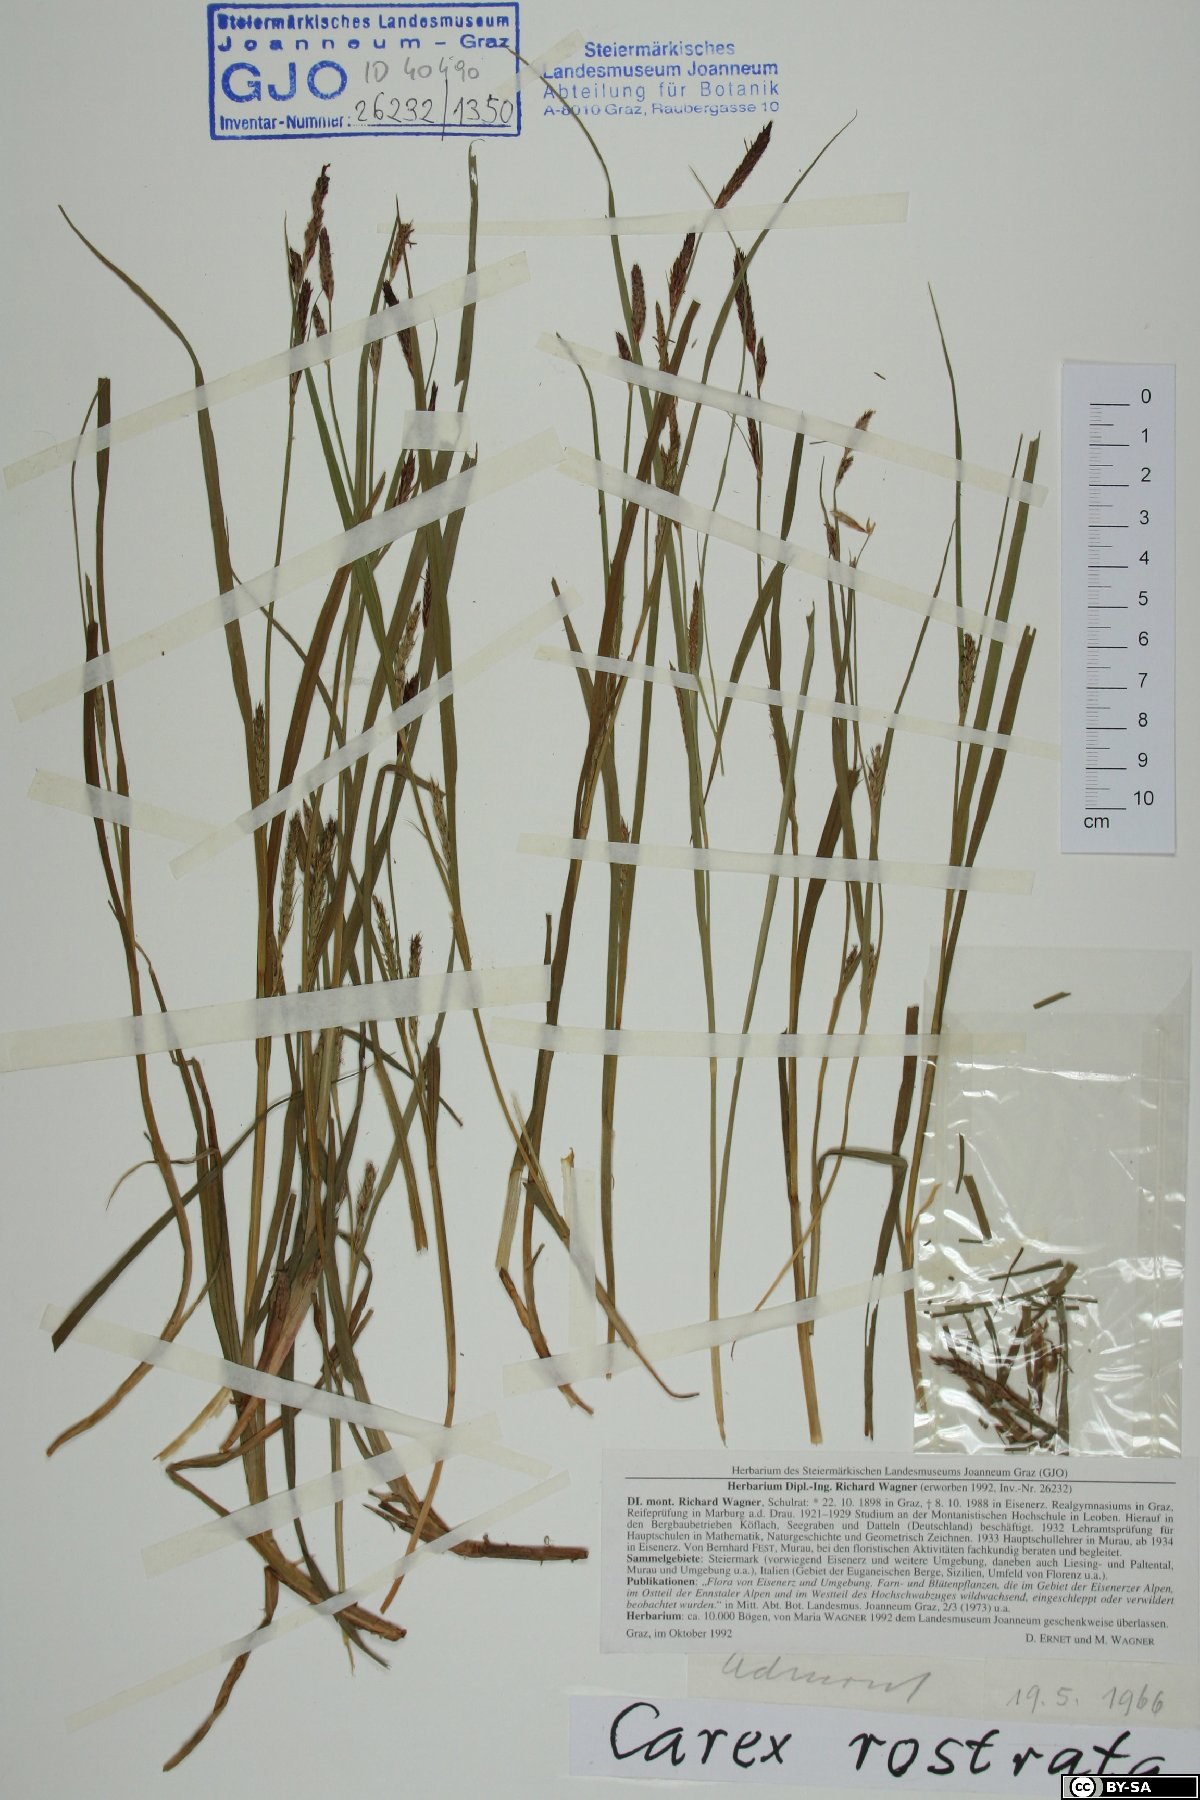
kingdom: Plantae
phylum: Tracheophyta
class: Liliopsida
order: Poales
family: Cyperaceae
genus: Carex
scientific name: Carex rostrata
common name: Bottle sedge
